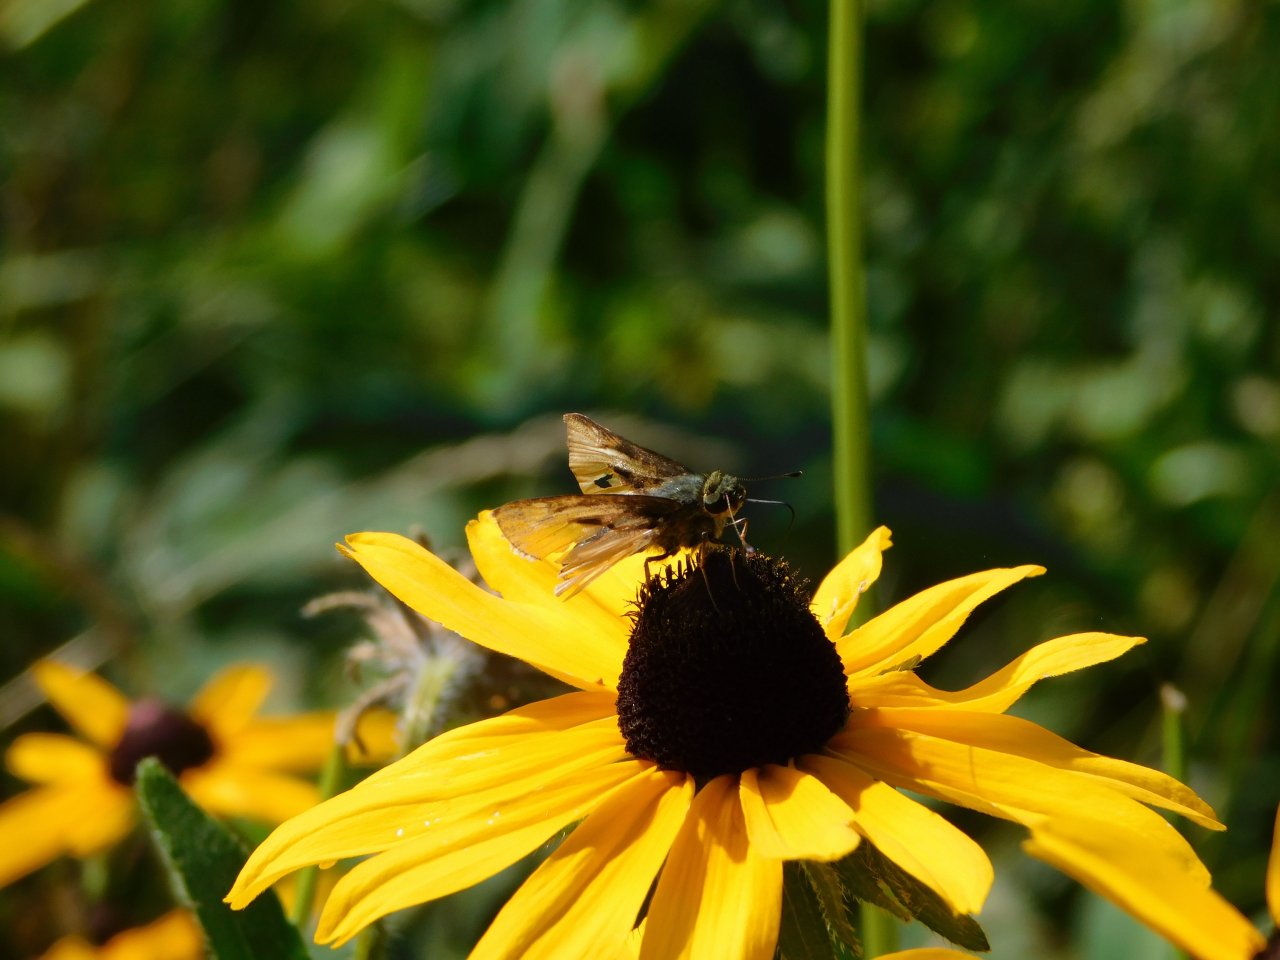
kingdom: Animalia
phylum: Arthropoda
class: Insecta
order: Lepidoptera
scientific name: Lepidoptera
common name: Butterflies
